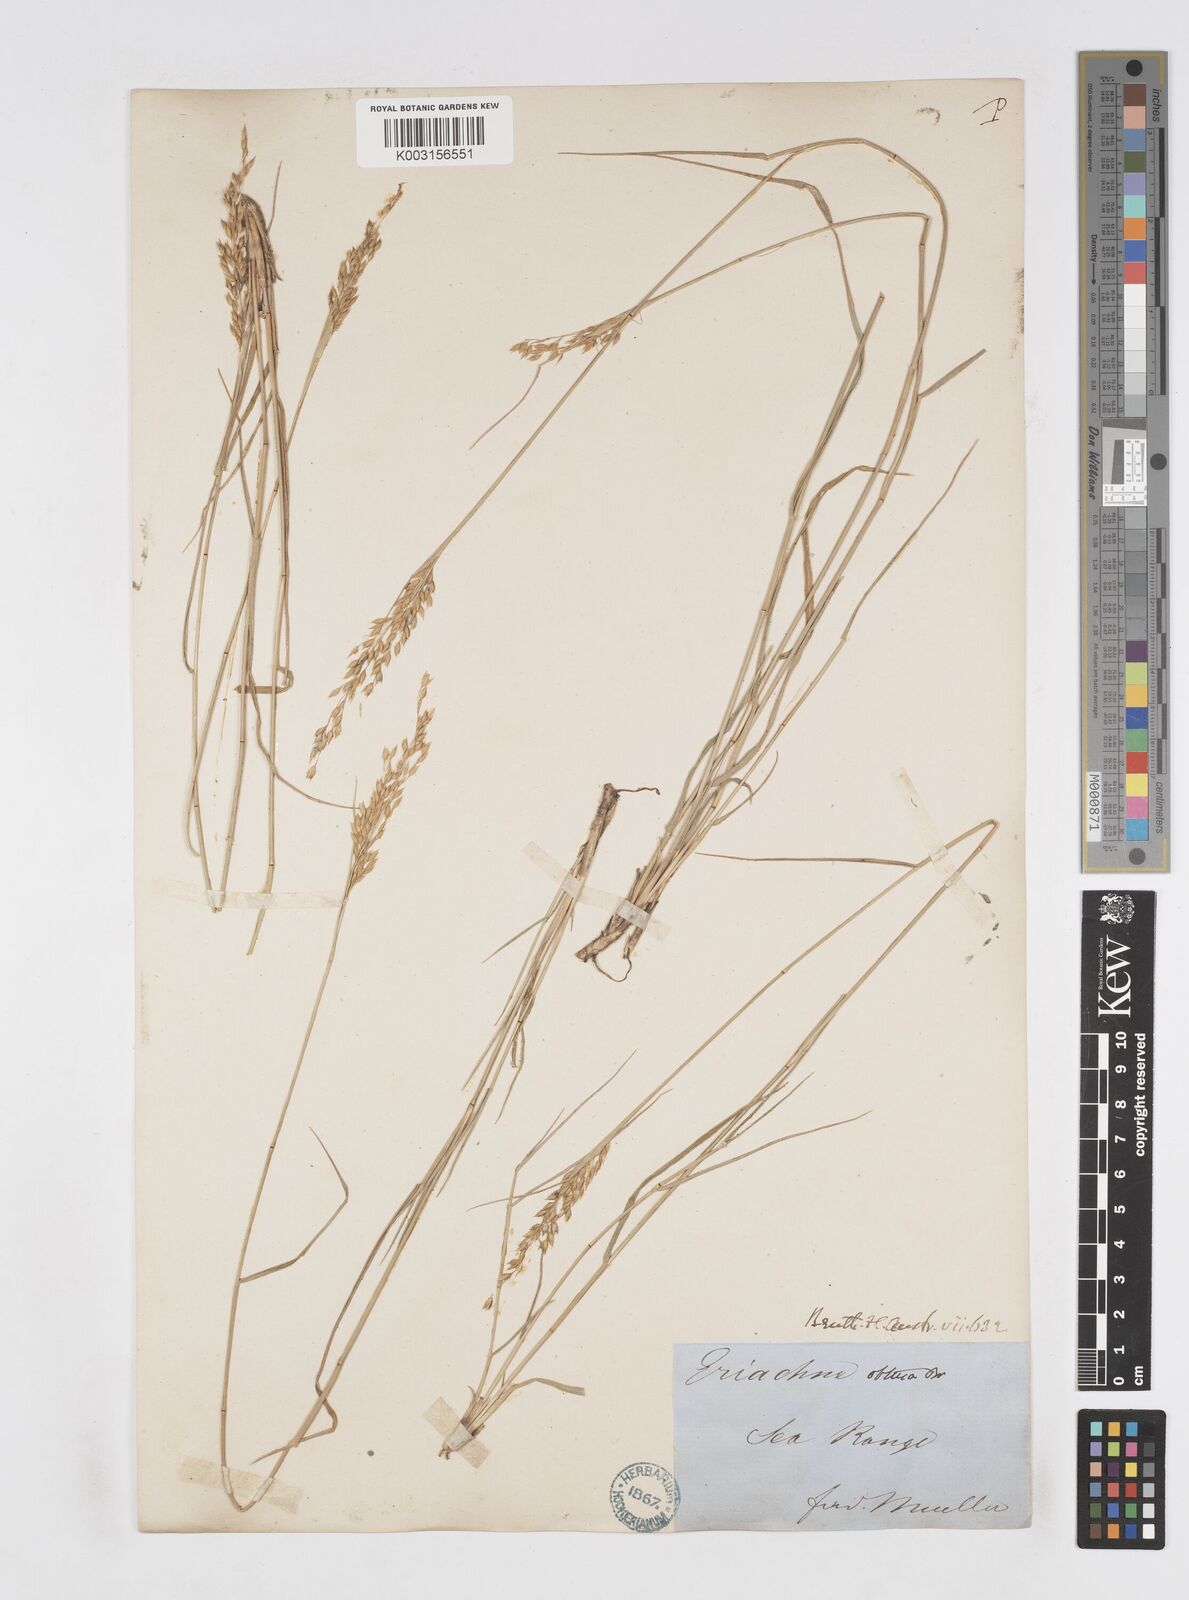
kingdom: Plantae
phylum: Tracheophyta
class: Liliopsida
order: Poales
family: Poaceae
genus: Eriachne
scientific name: Eriachne obtusa
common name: Northern wanderrie grass
